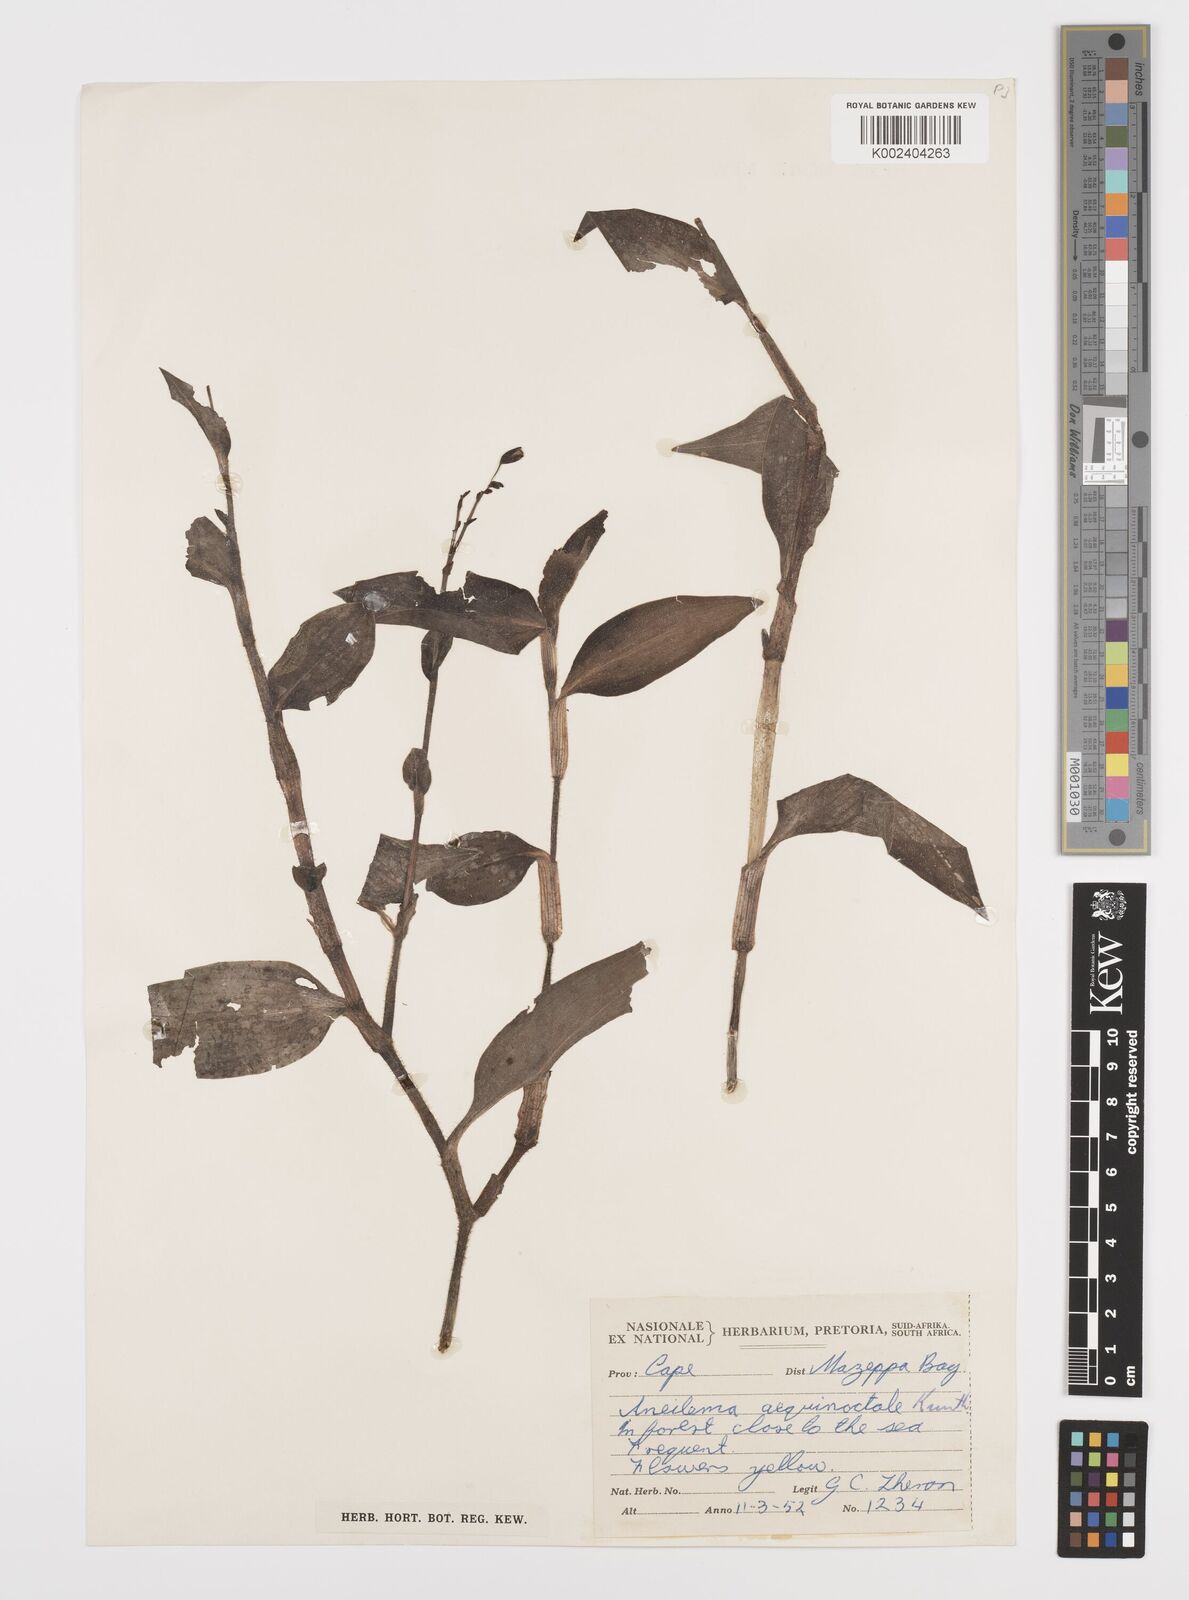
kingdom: Plantae
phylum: Tracheophyta
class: Liliopsida
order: Commelinales
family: Commelinaceae
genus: Aneilema
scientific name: Aneilema aequinoctiale
